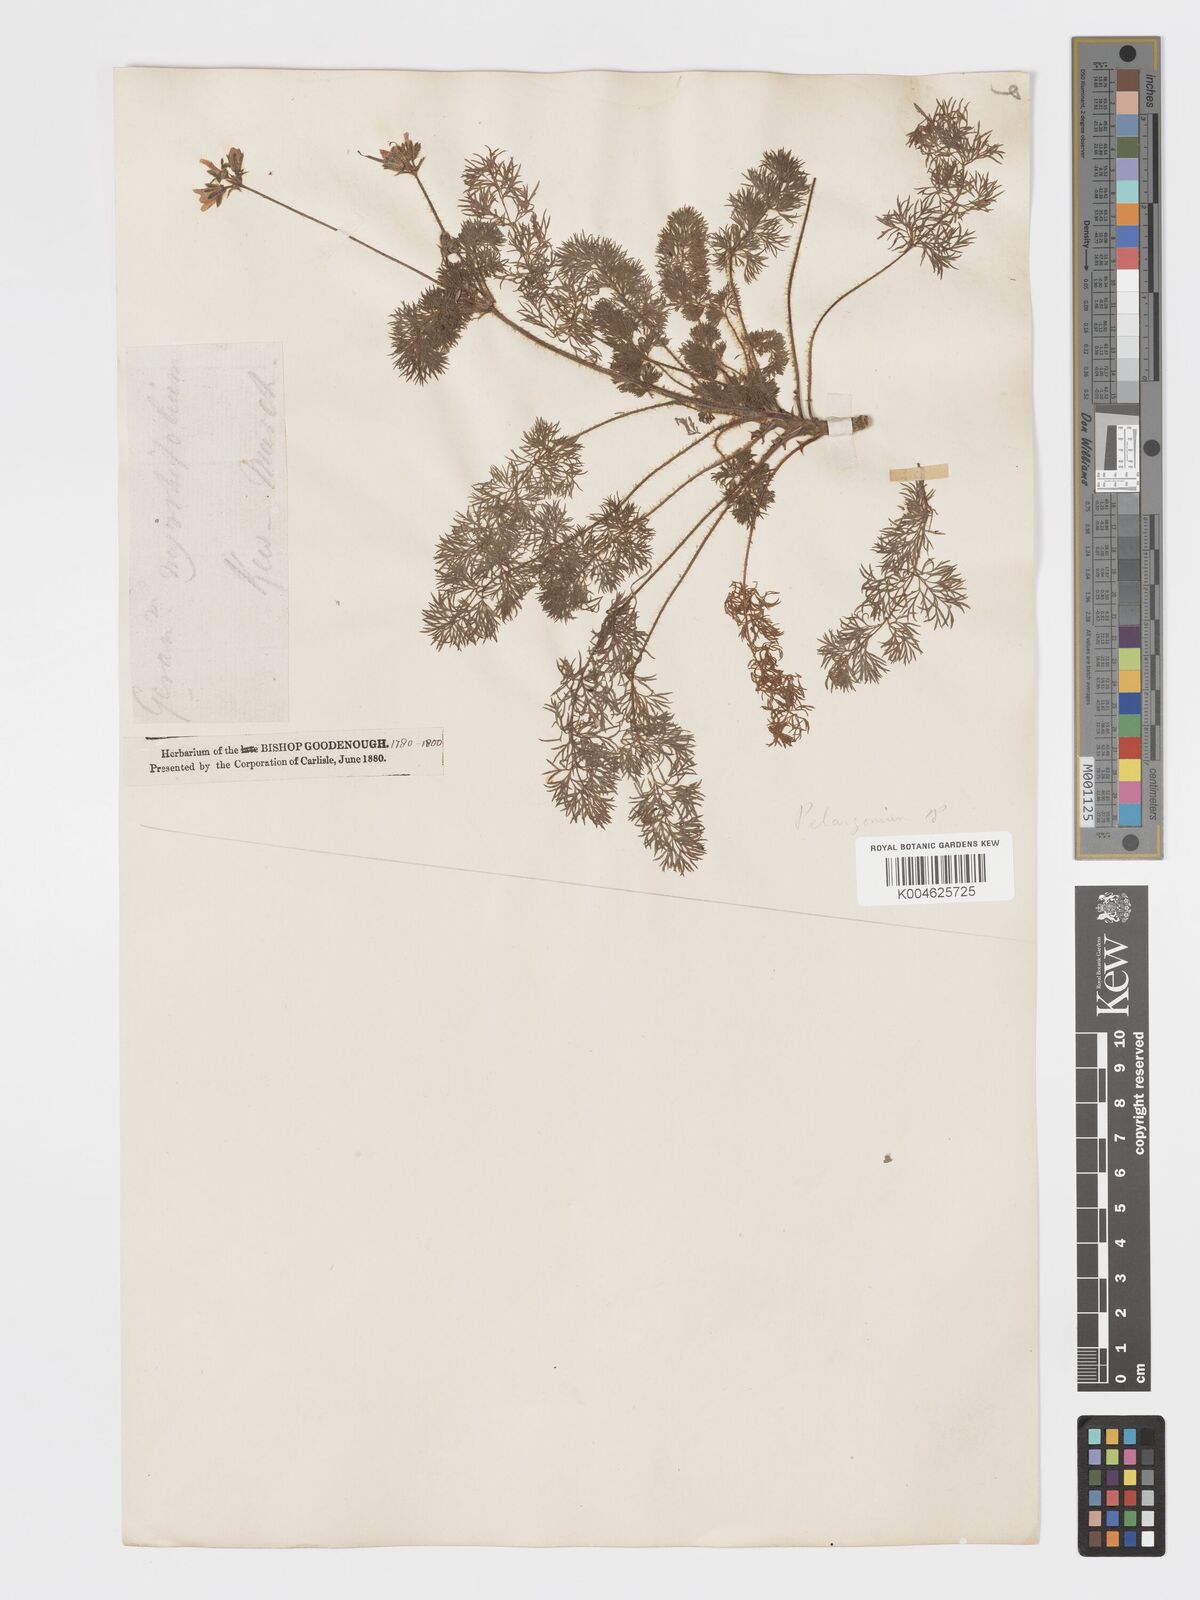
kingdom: Plantae
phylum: Tracheophyta
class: Magnoliopsida
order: Geraniales
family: Geraniaceae
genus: Pelargonium
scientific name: Pelargonium
